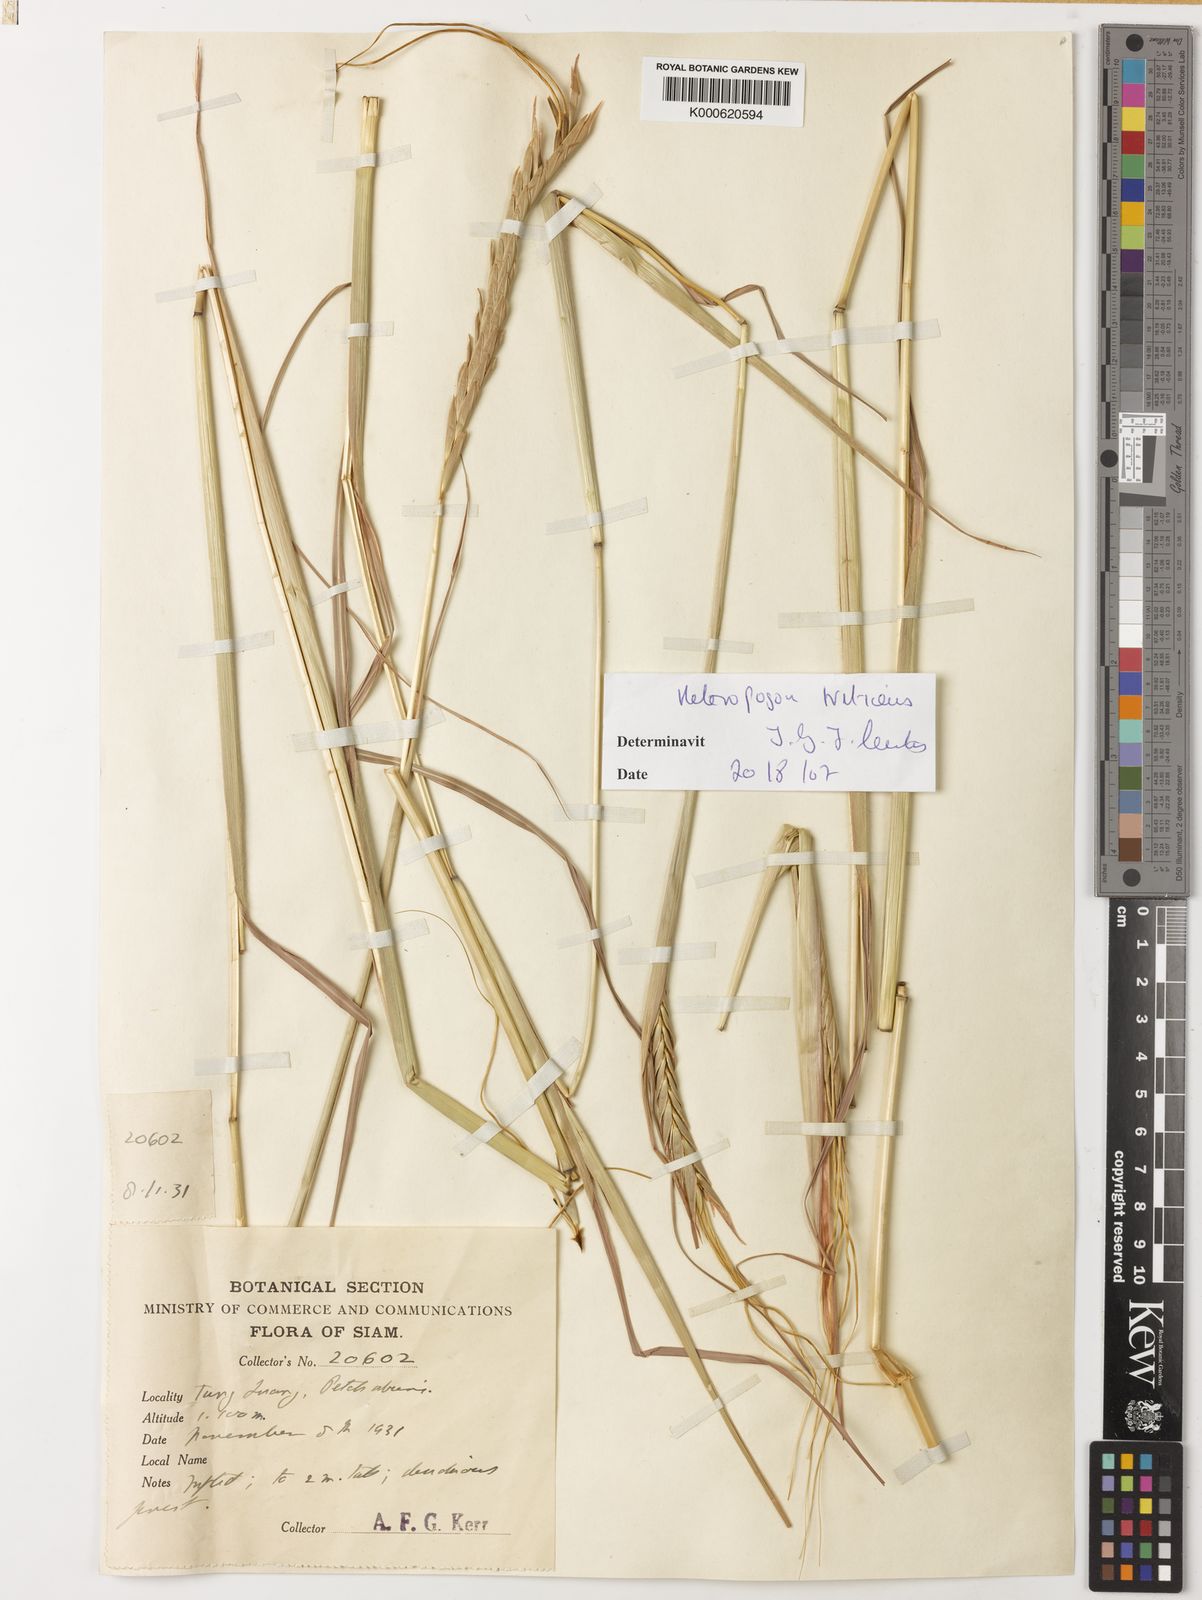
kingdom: Plantae
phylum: Tracheophyta
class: Liliopsida
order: Poales
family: Poaceae
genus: Heteropogon
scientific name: Heteropogon triticeus
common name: Sugar grass
